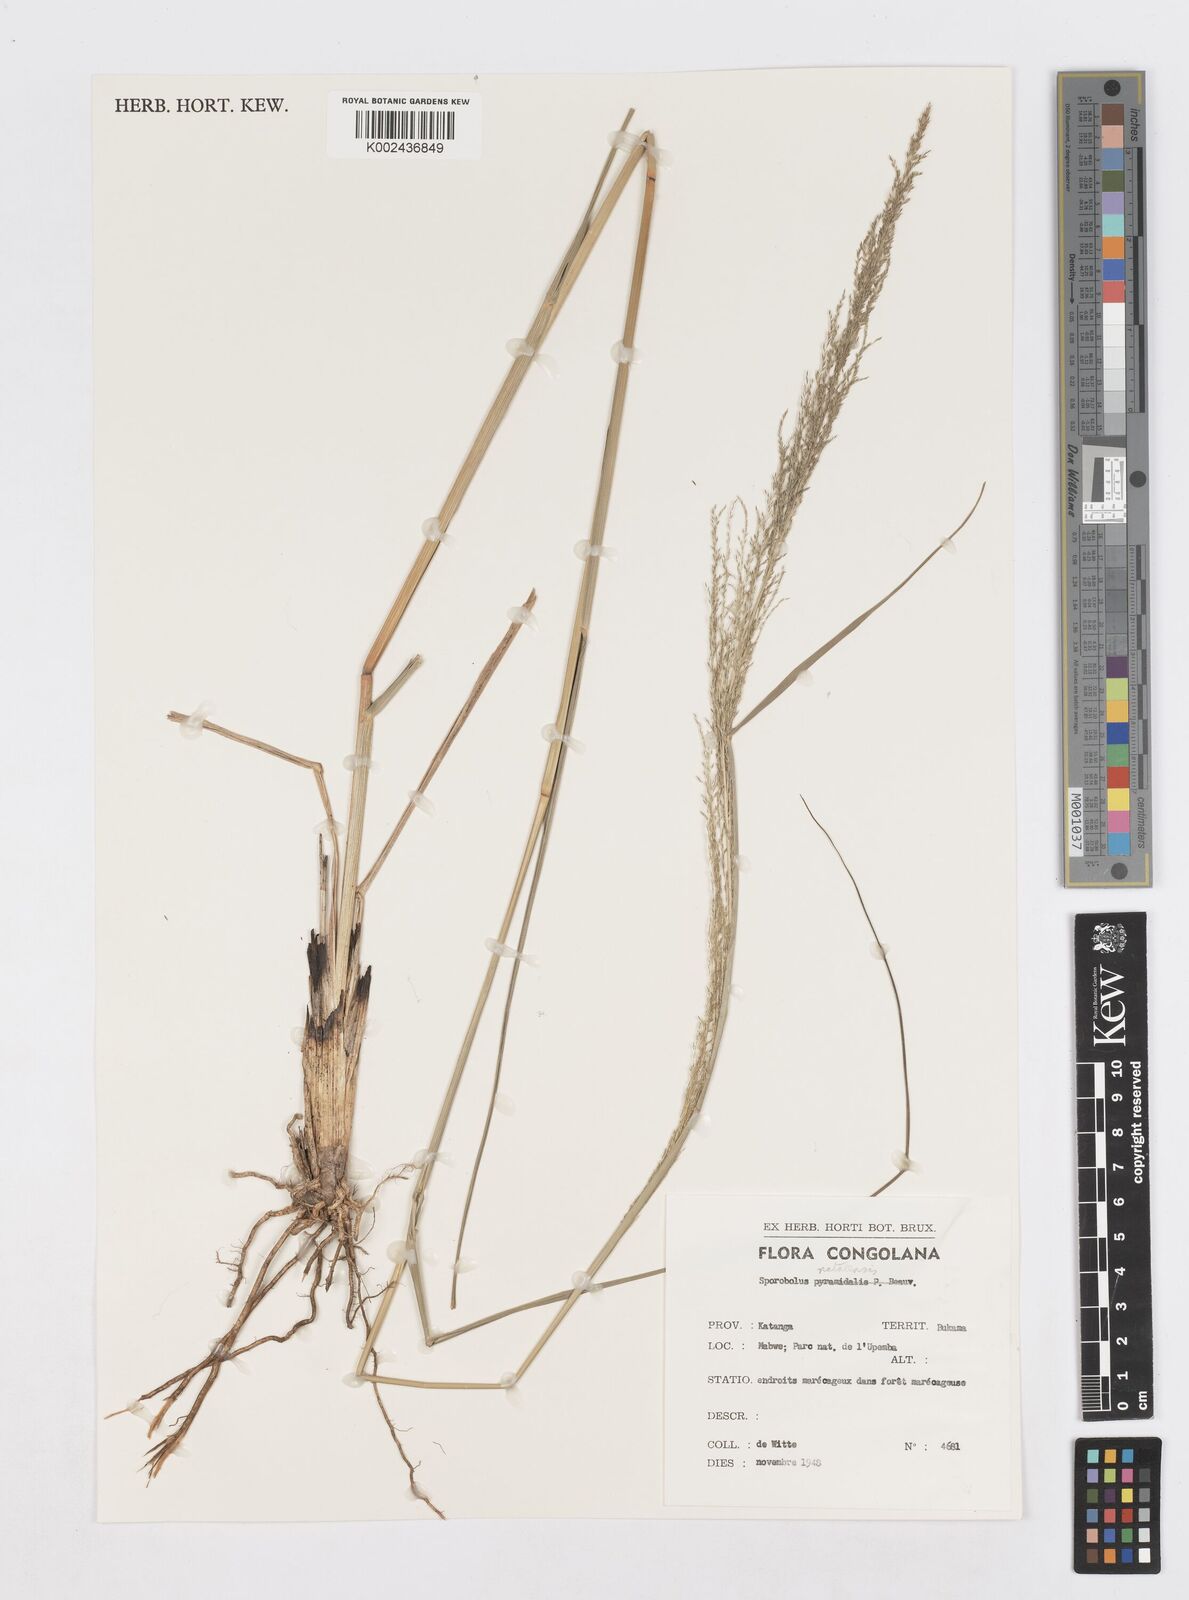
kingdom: Plantae
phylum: Tracheophyta
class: Liliopsida
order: Poales
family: Poaceae
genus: Sporobolus
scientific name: Sporobolus natalensis
